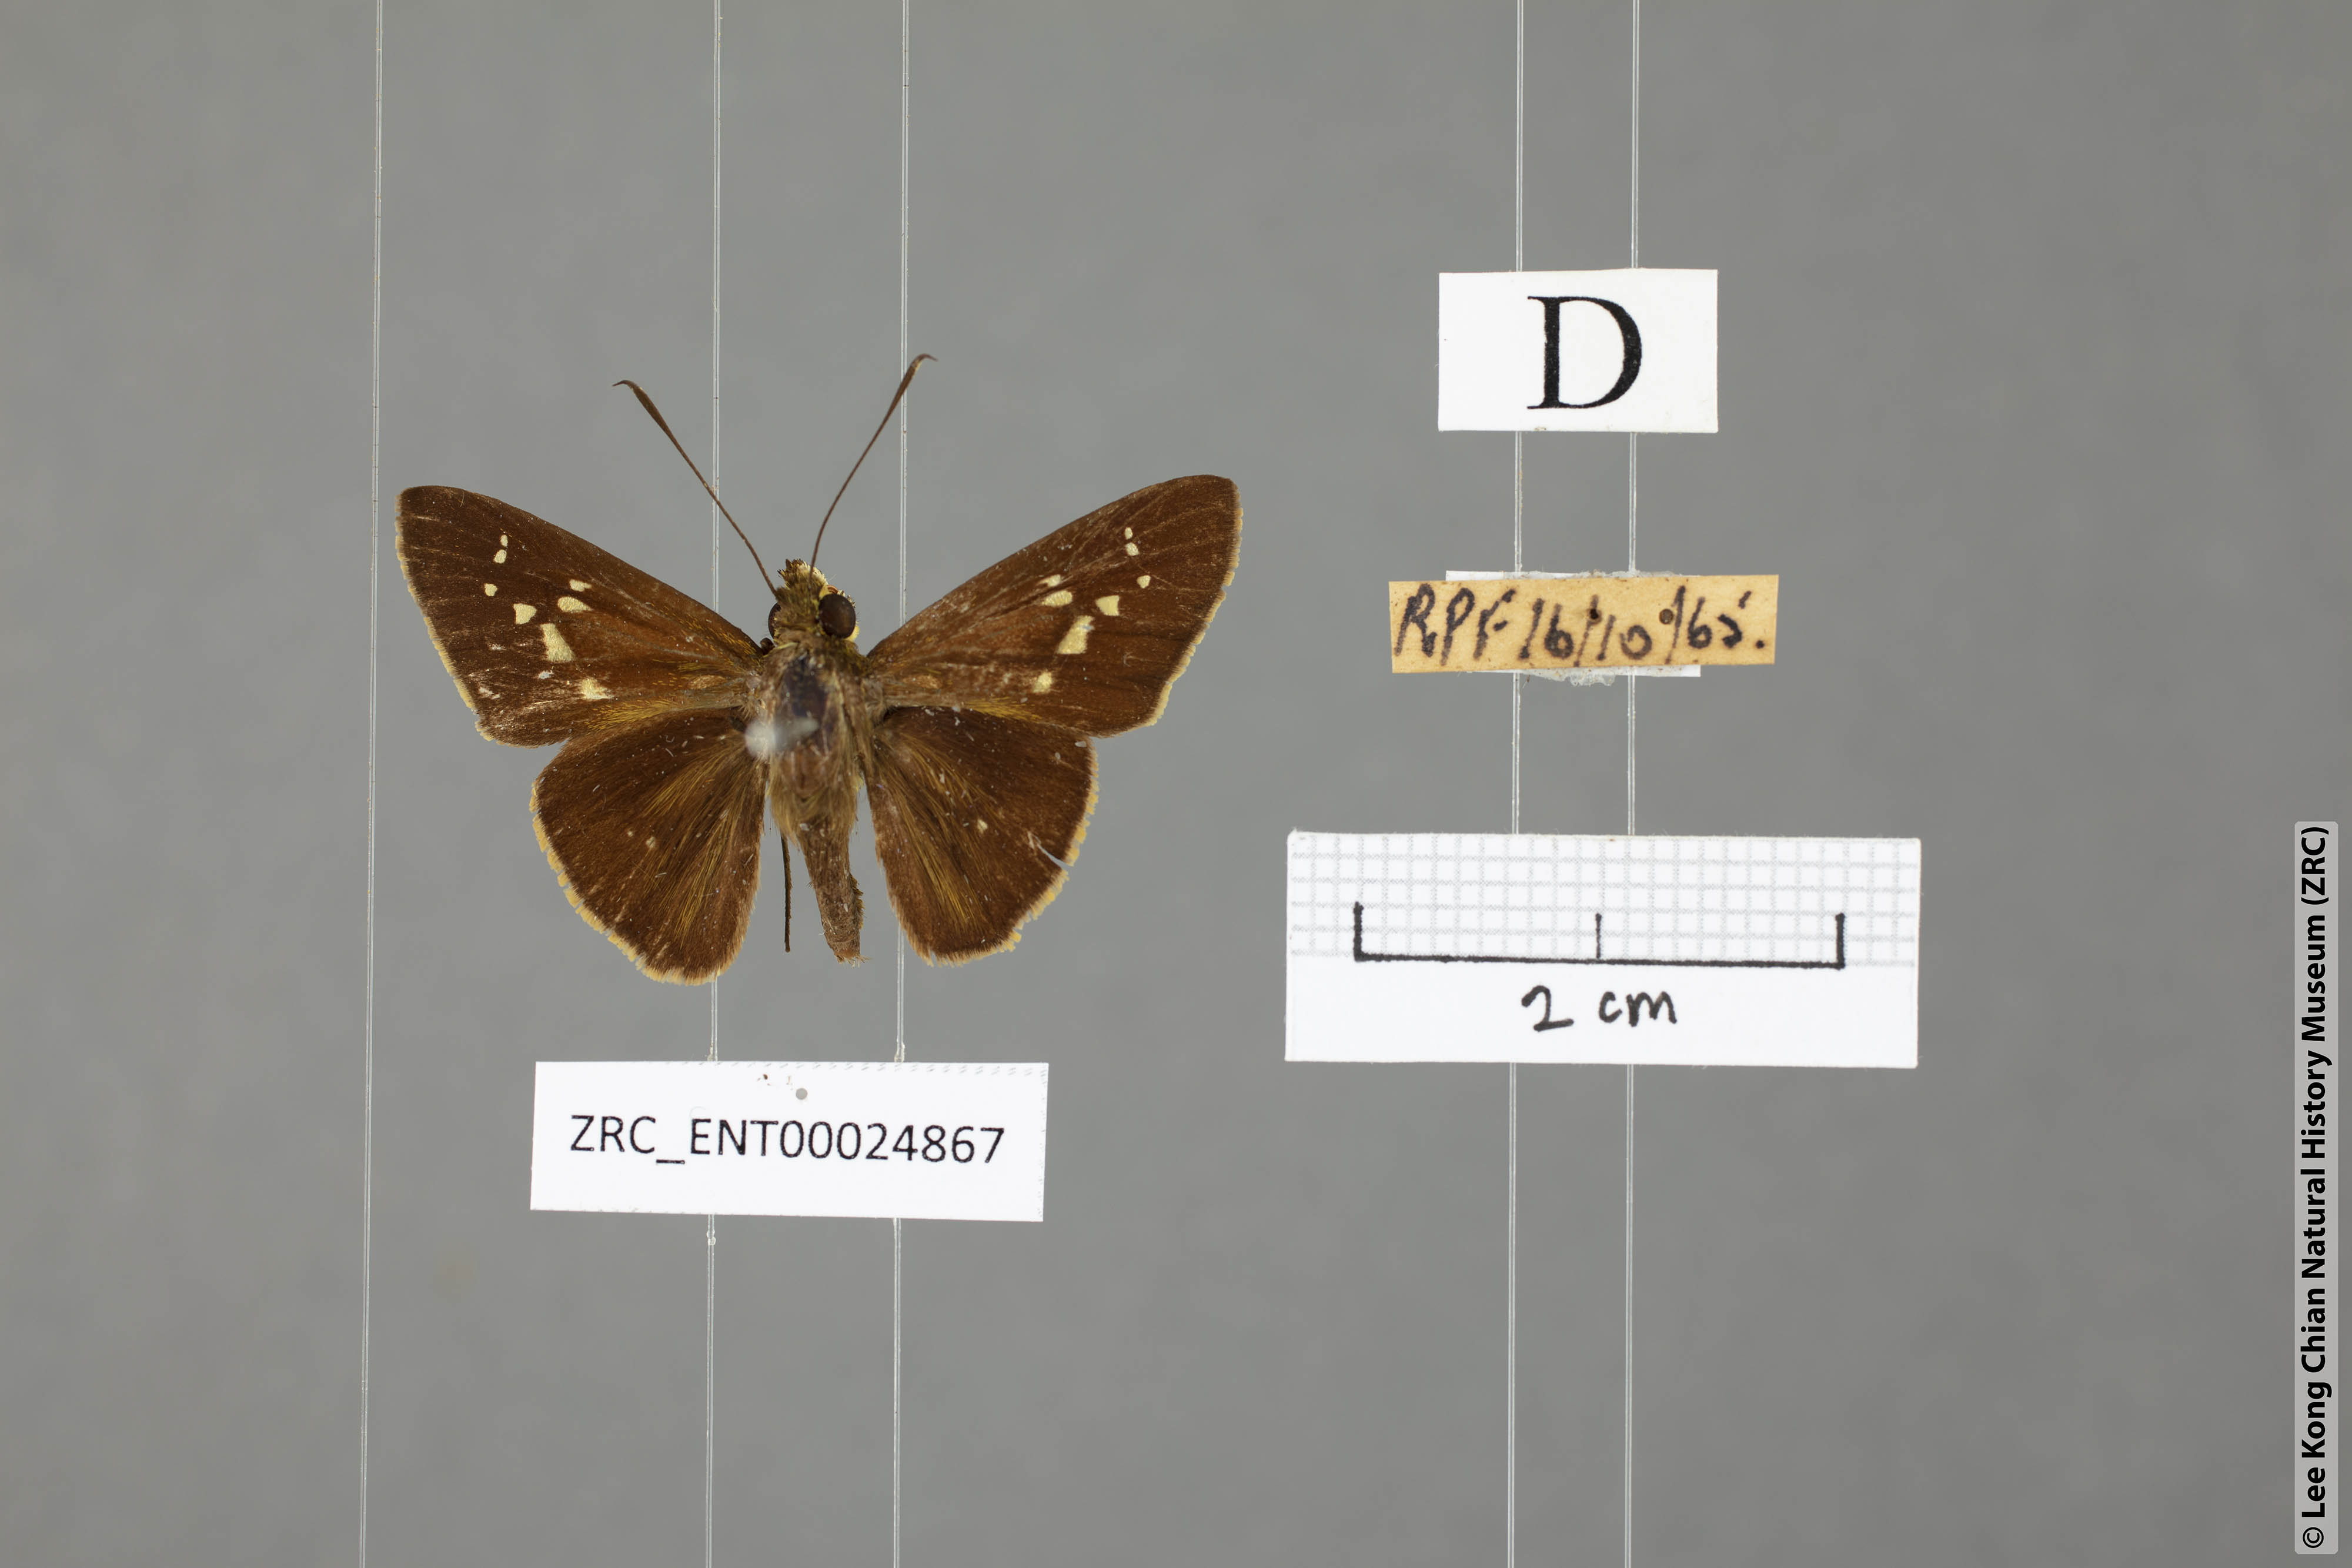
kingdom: Animalia
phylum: Arthropoda
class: Insecta
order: Lepidoptera
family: Hesperiidae
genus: Isma
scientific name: Isma miosticta
